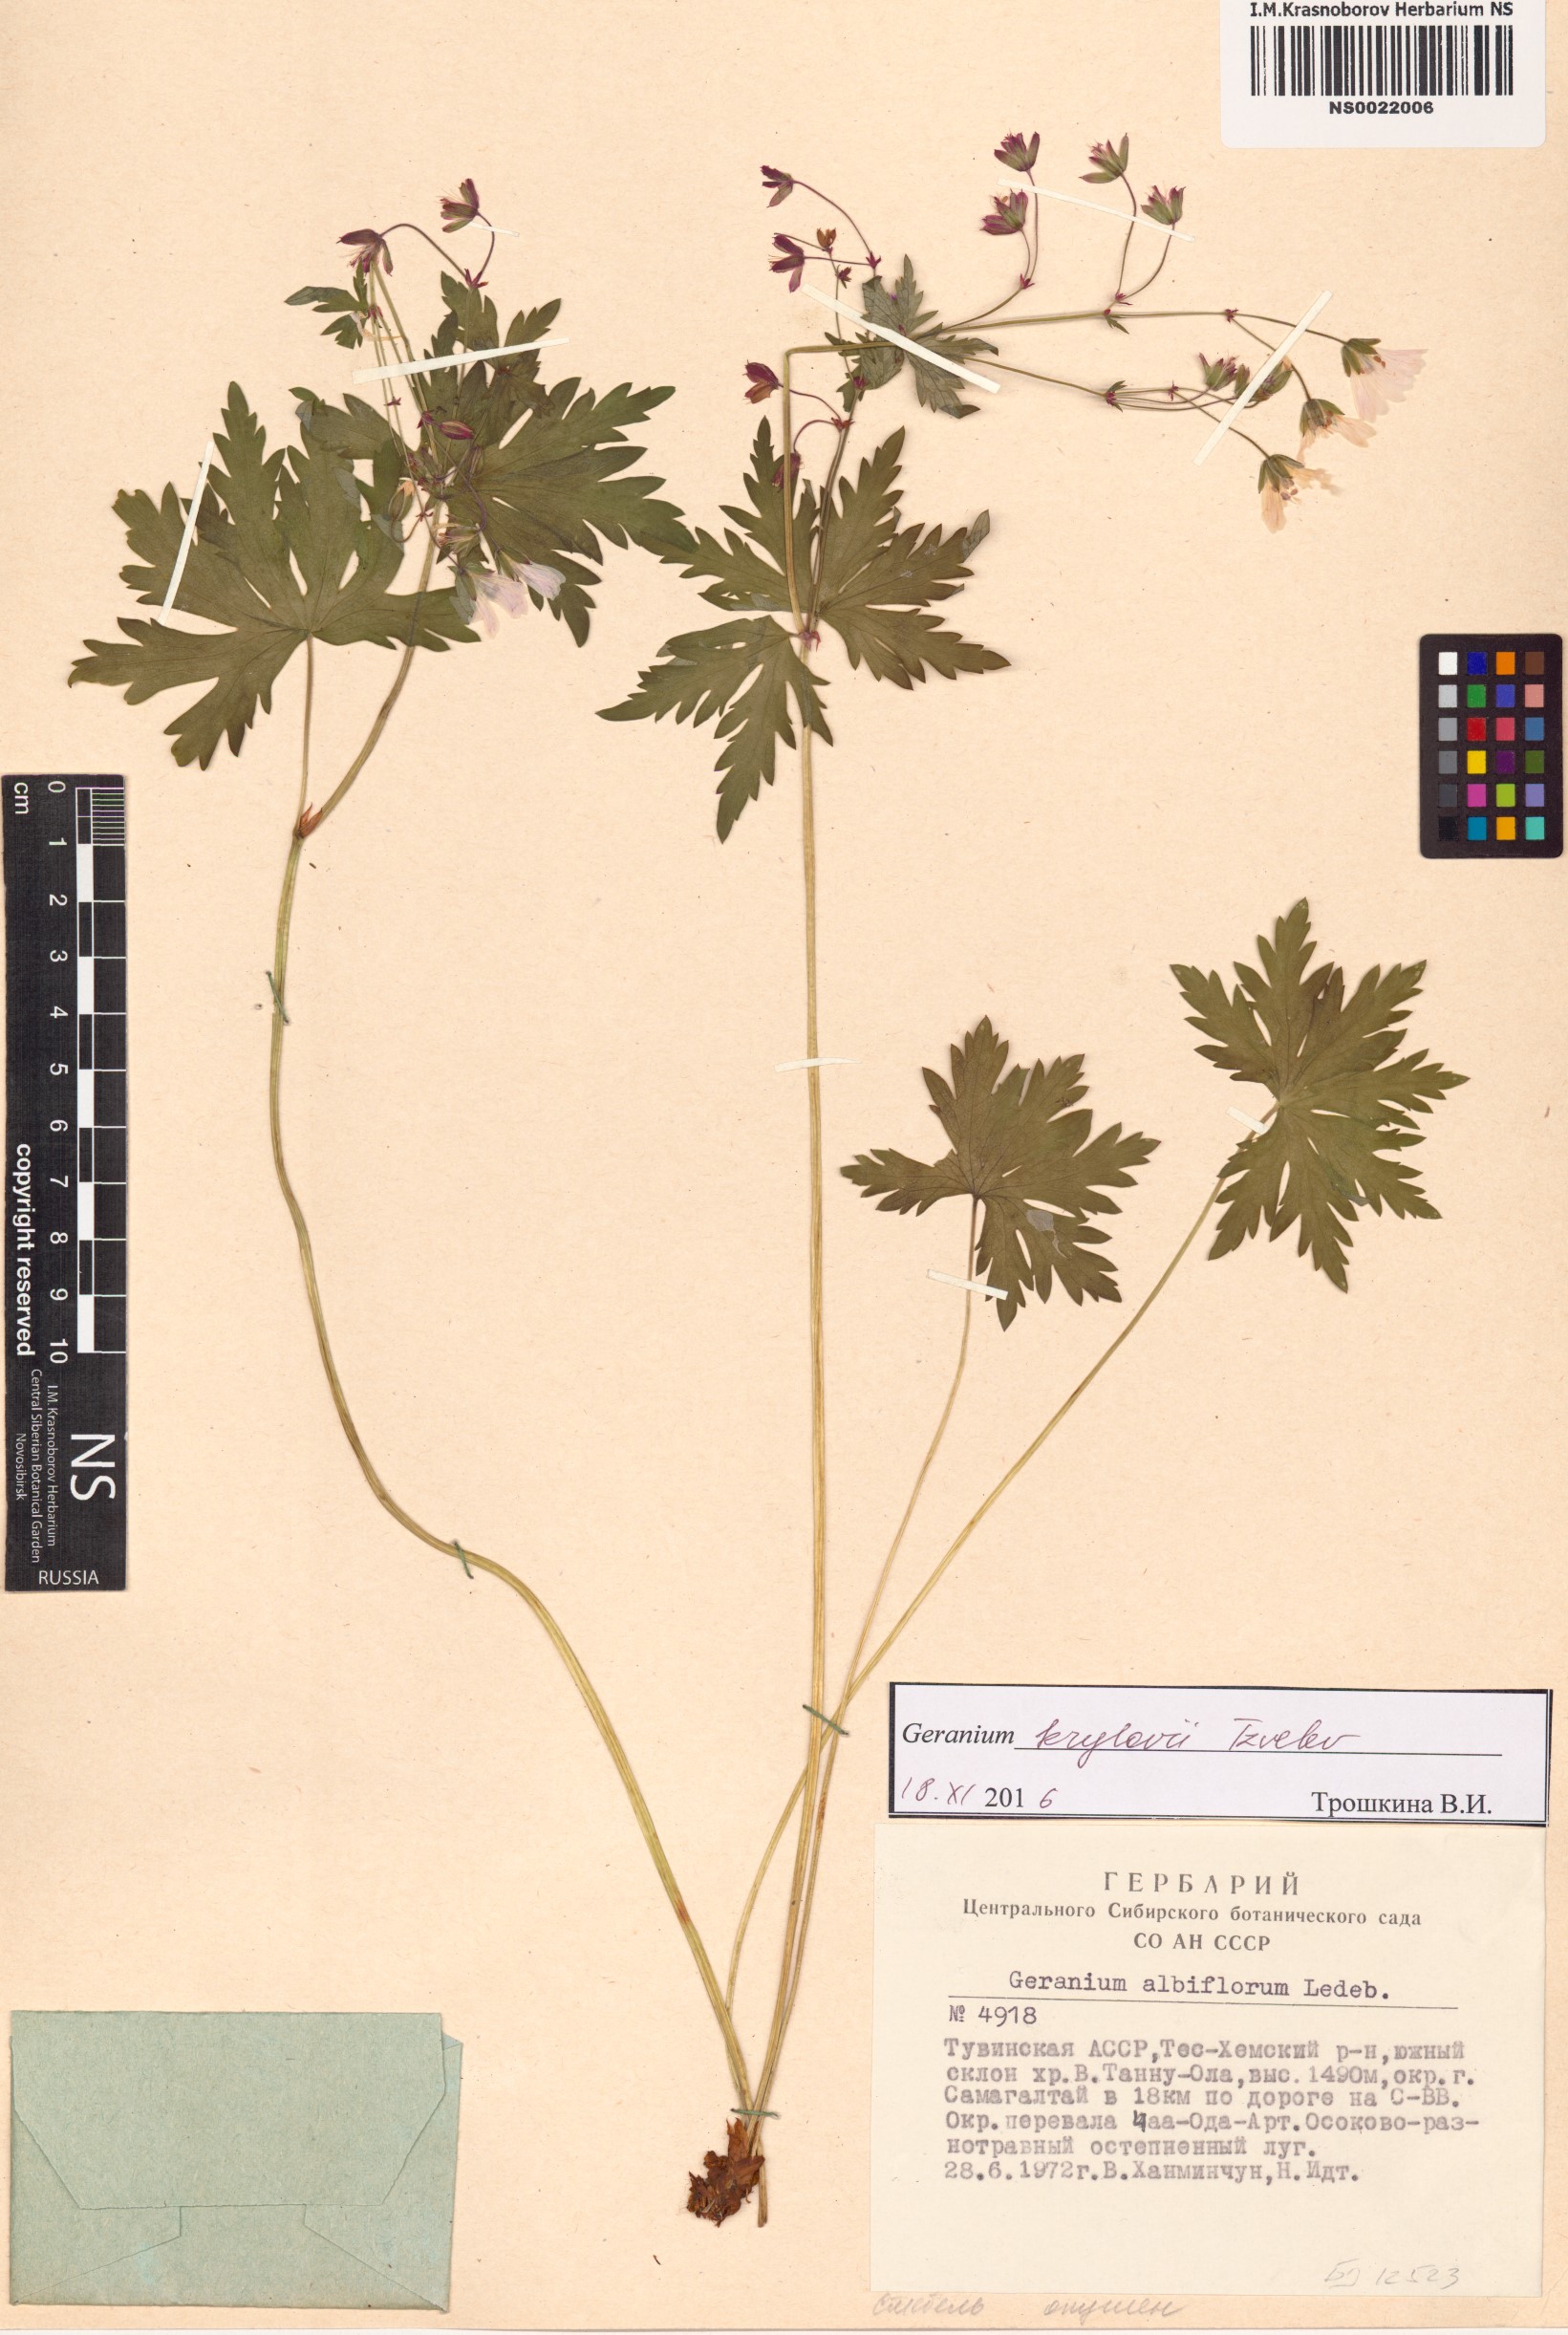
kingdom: Plantae
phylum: Tracheophyta
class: Magnoliopsida
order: Geraniales
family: Geraniaceae
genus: Geranium
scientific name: Geranium sylvaticum
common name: Wood crane's-bill
